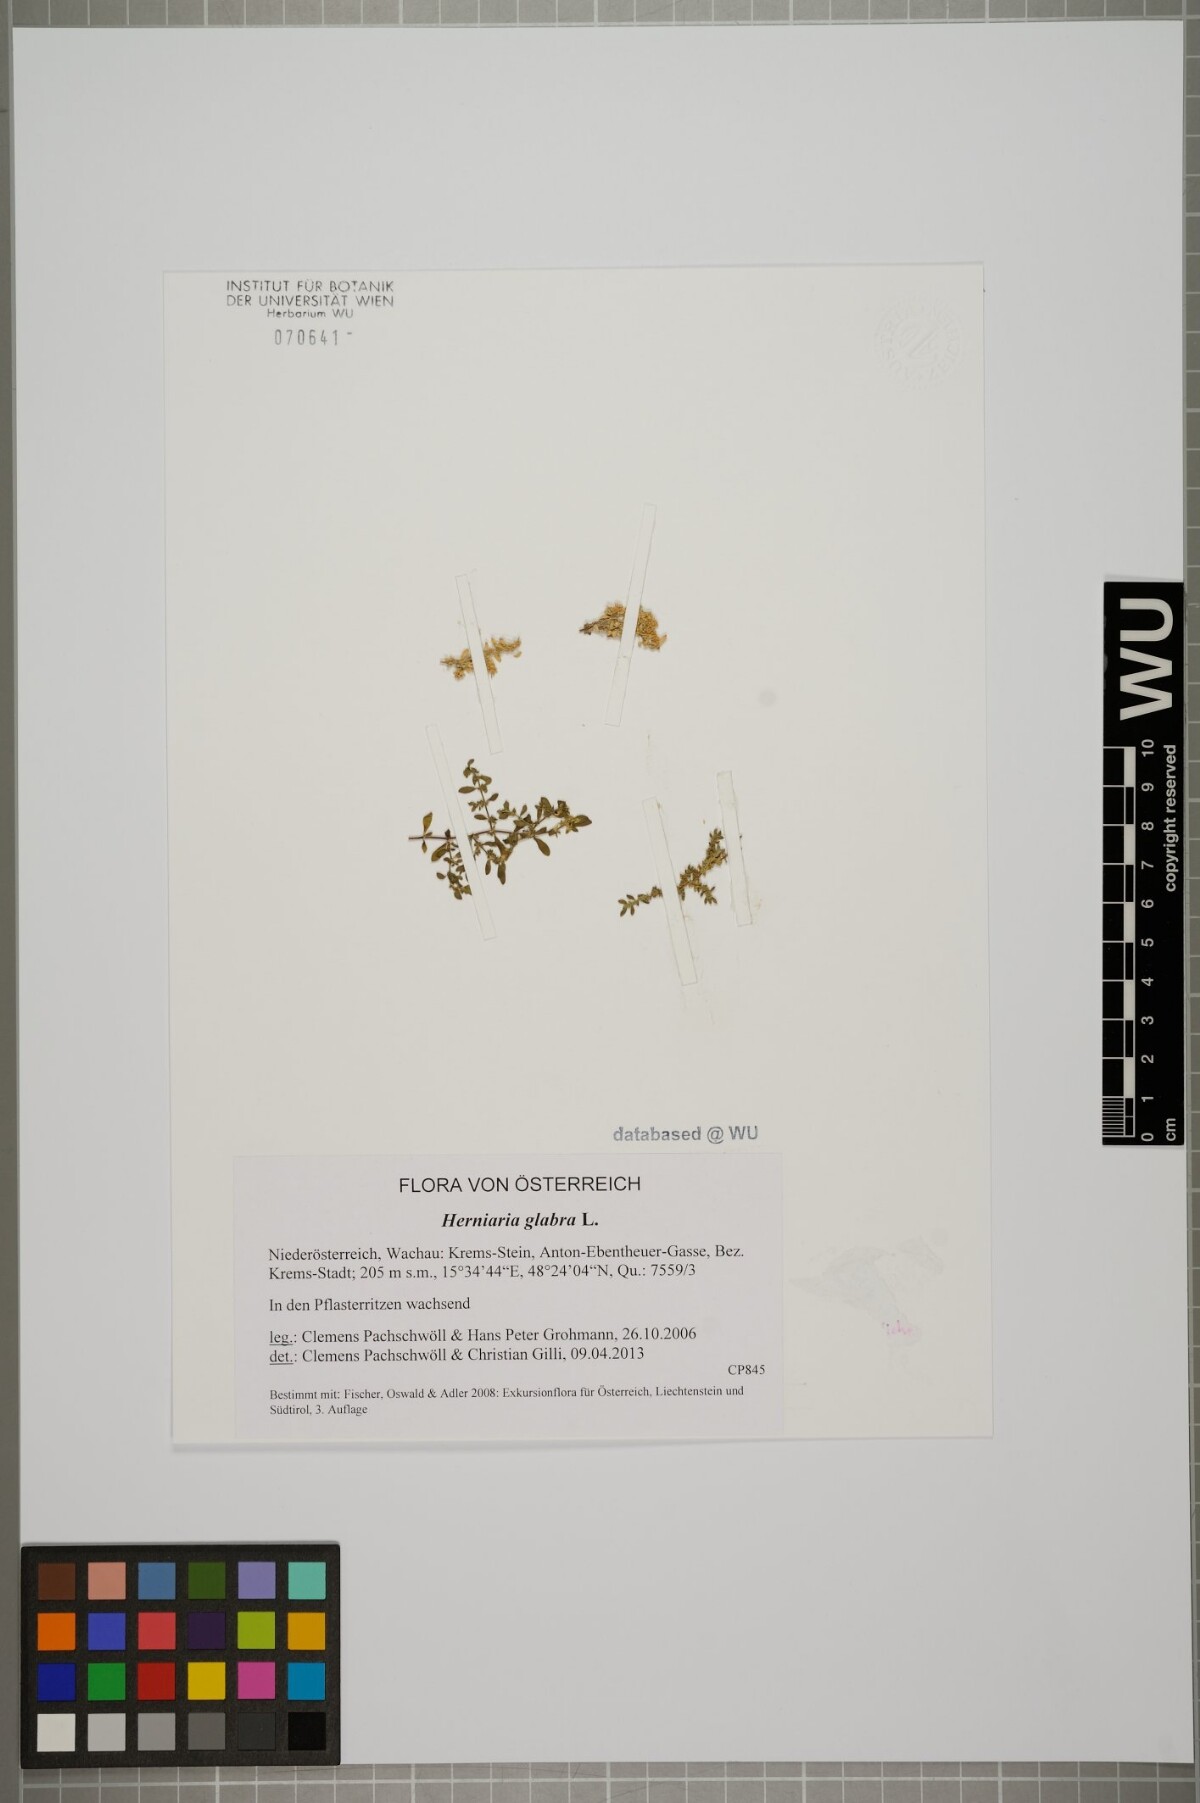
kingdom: Plantae
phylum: Tracheophyta
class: Magnoliopsida
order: Caryophyllales
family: Caryophyllaceae
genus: Herniaria
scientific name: Herniaria glabra
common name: Smooth rupturewort
